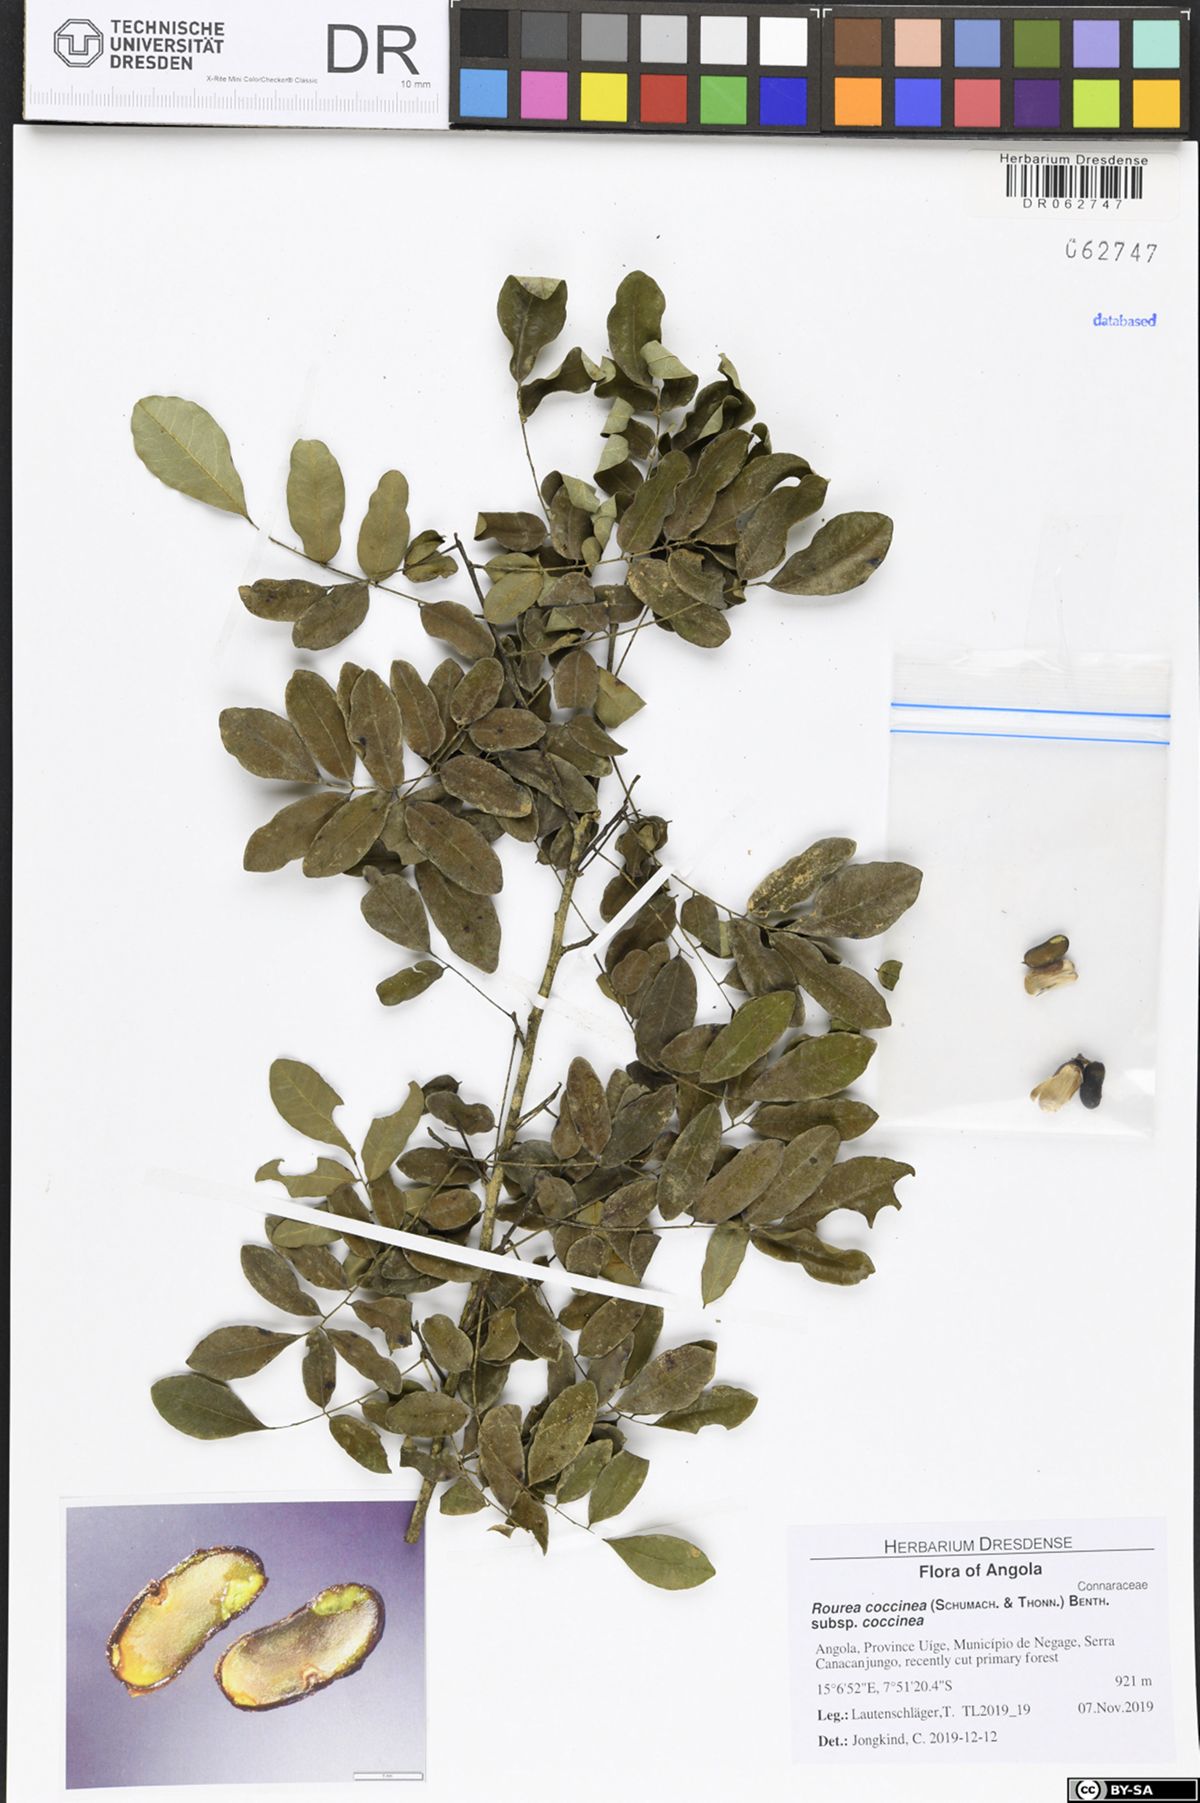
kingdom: Plantae
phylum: Tracheophyta
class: Magnoliopsida
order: Oxalidales
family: Connaraceae
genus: Rourea
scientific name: Rourea coccinea
